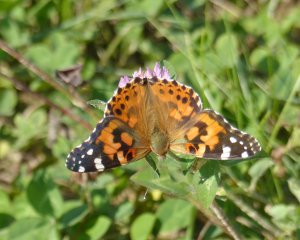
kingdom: Animalia
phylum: Arthropoda
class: Insecta
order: Lepidoptera
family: Nymphalidae
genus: Vanessa
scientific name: Vanessa cardui
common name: Painted Lady
